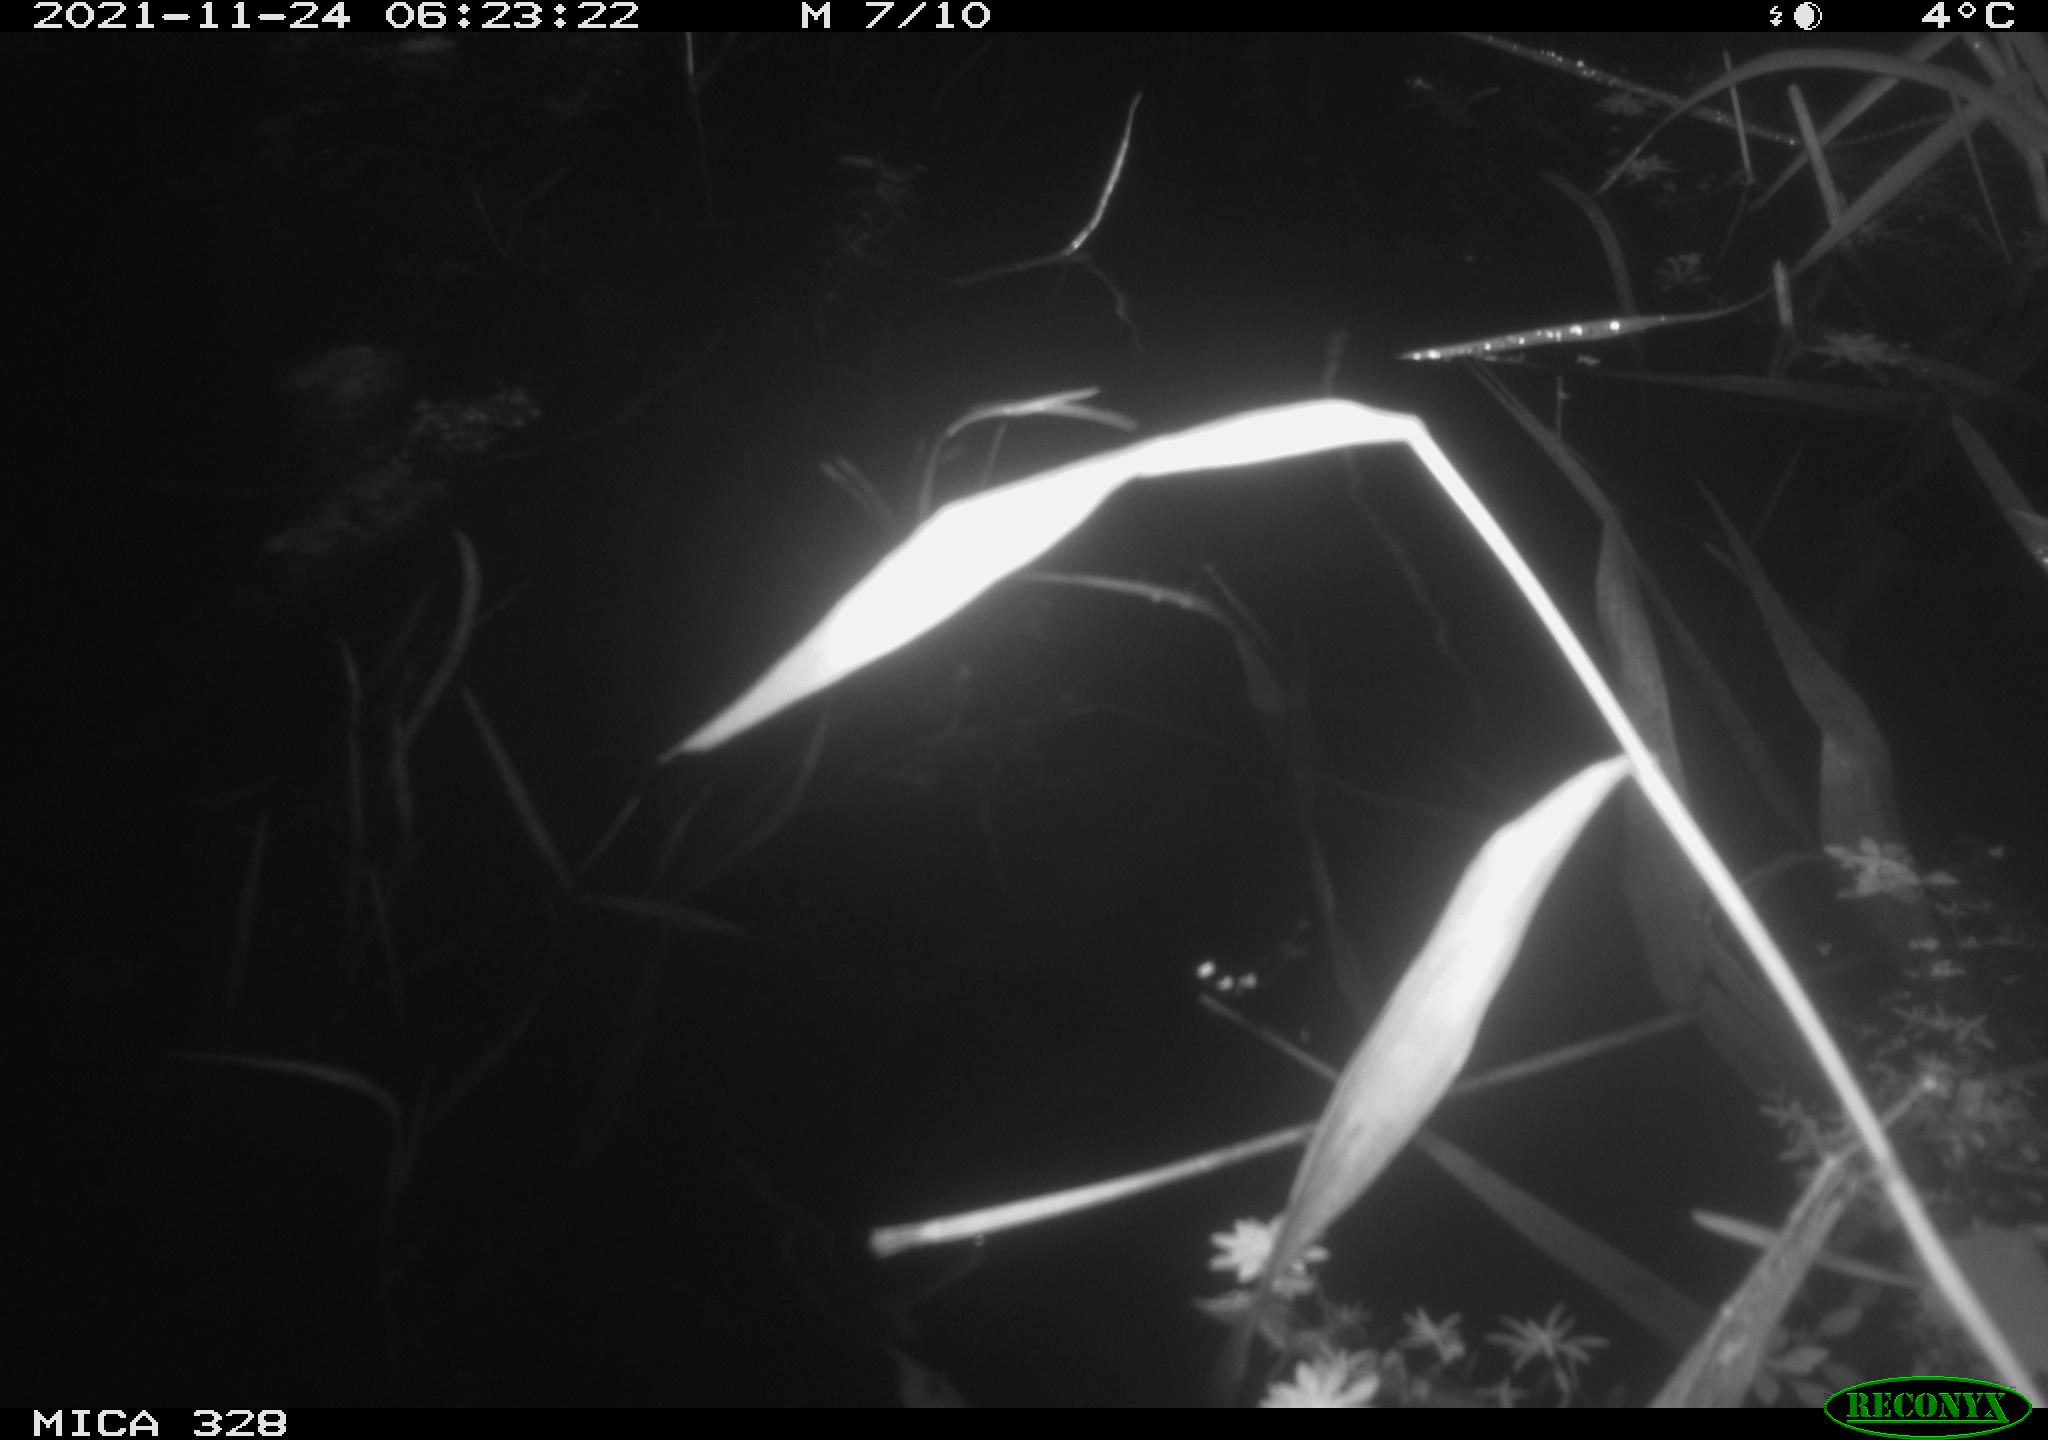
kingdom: Animalia
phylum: Chordata
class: Mammalia
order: Rodentia
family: Cricetidae
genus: Ondatra
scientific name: Ondatra zibethicus
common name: Muskrat
